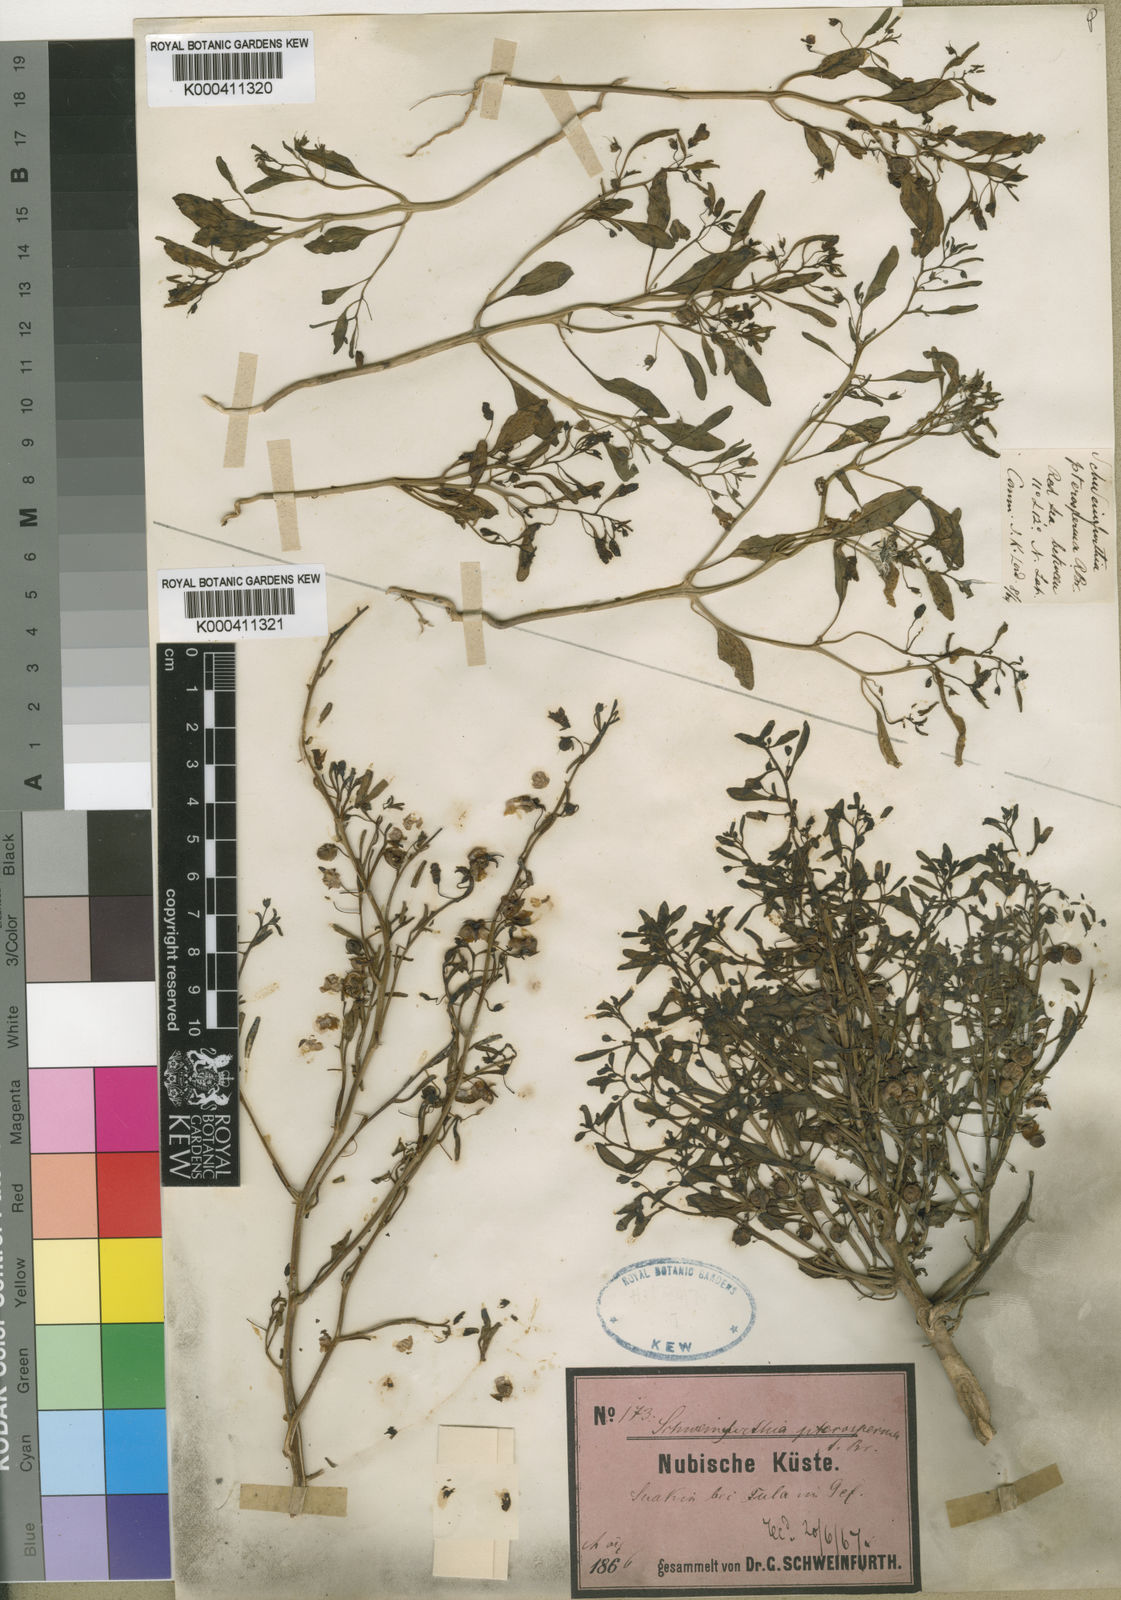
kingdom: Plantae
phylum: Tracheophyta
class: Magnoliopsida
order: Lamiales
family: Plantaginaceae
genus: Schweinfurthia
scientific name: Schweinfurthia pterosperma
